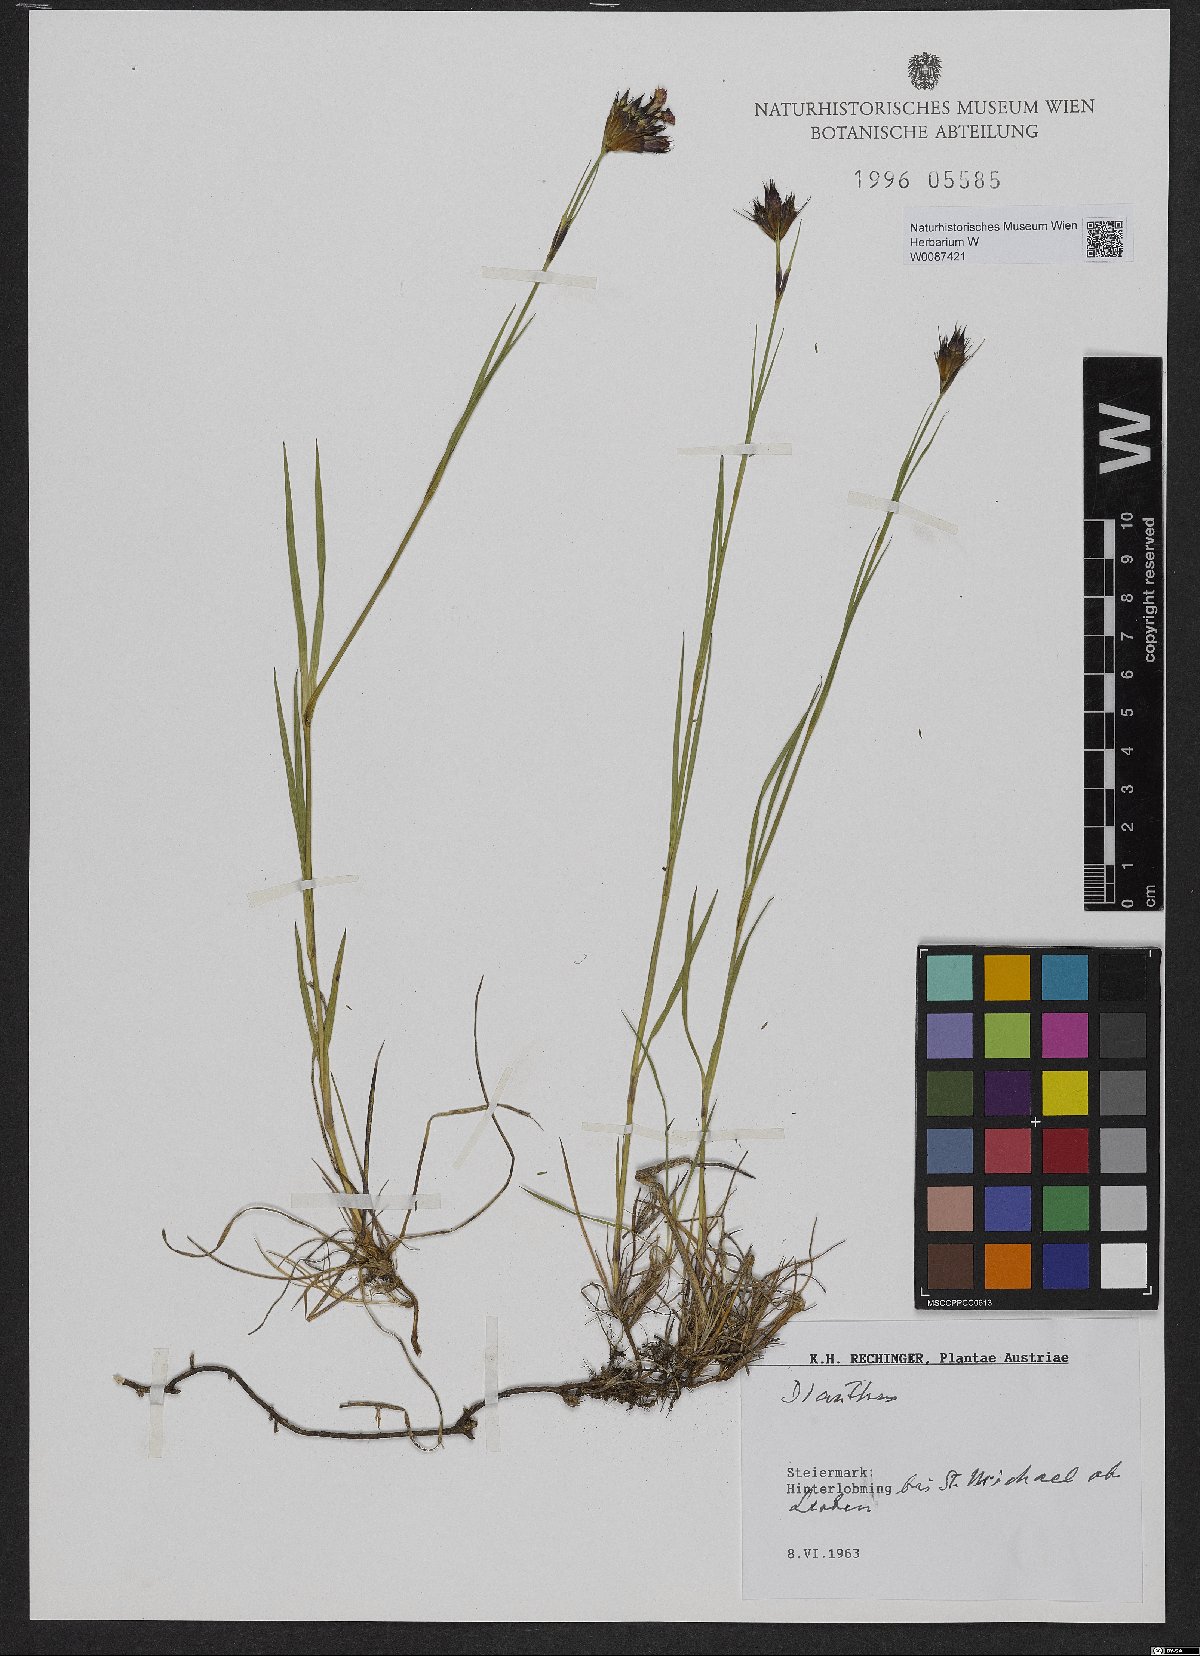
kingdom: Plantae
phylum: Tracheophyta
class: Magnoliopsida
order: Caryophyllales
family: Caryophyllaceae
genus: Dianthus
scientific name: Dianthus carthusianorum
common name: Carthusian pink
